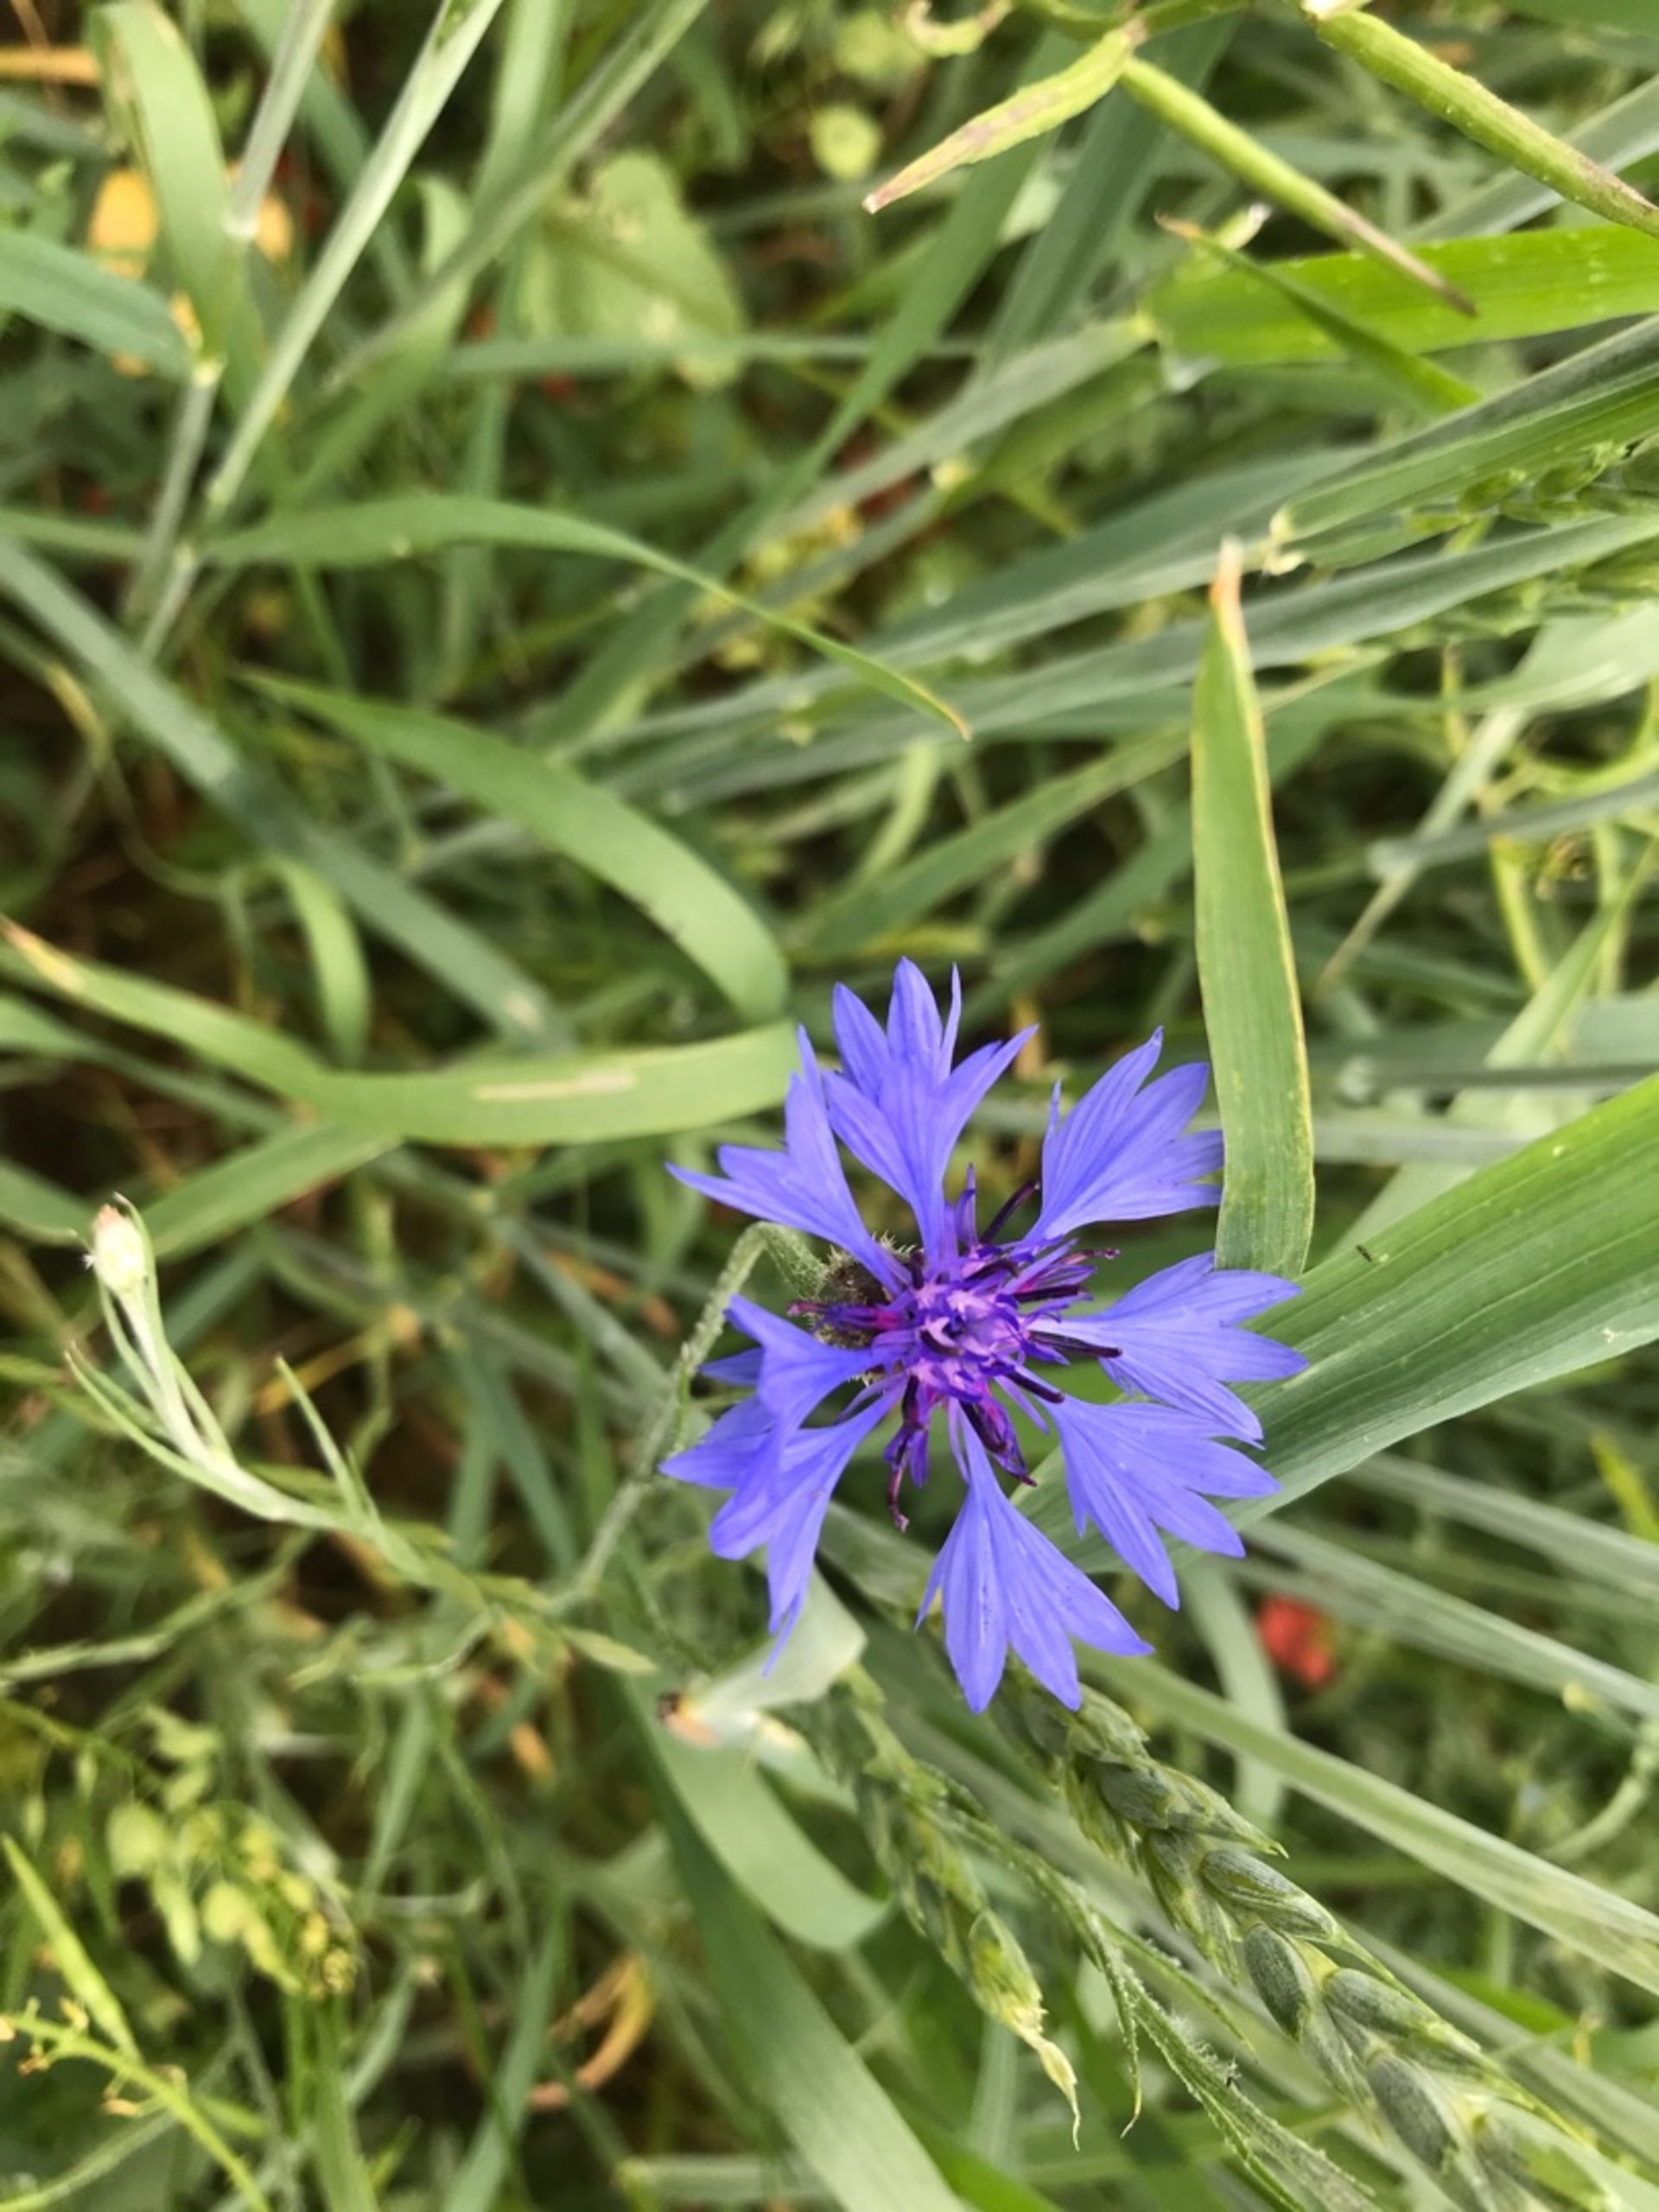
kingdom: Plantae
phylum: Tracheophyta
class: Magnoliopsida
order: Asterales
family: Asteraceae
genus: Centaurea
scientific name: Centaurea cyanus
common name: Kornblomst
